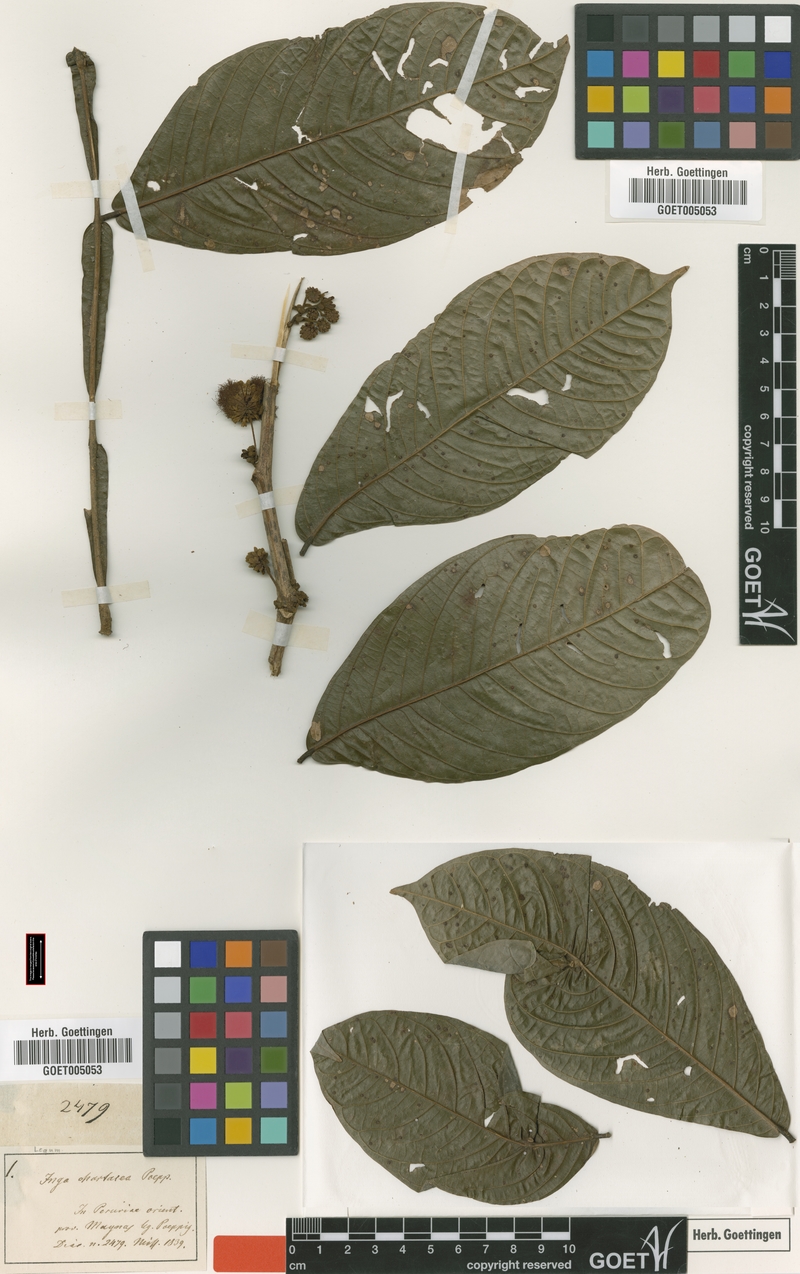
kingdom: Plantae
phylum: Tracheophyta
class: Magnoliopsida
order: Fabales
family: Fabaceae
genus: Inga
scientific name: Inga chartacea
